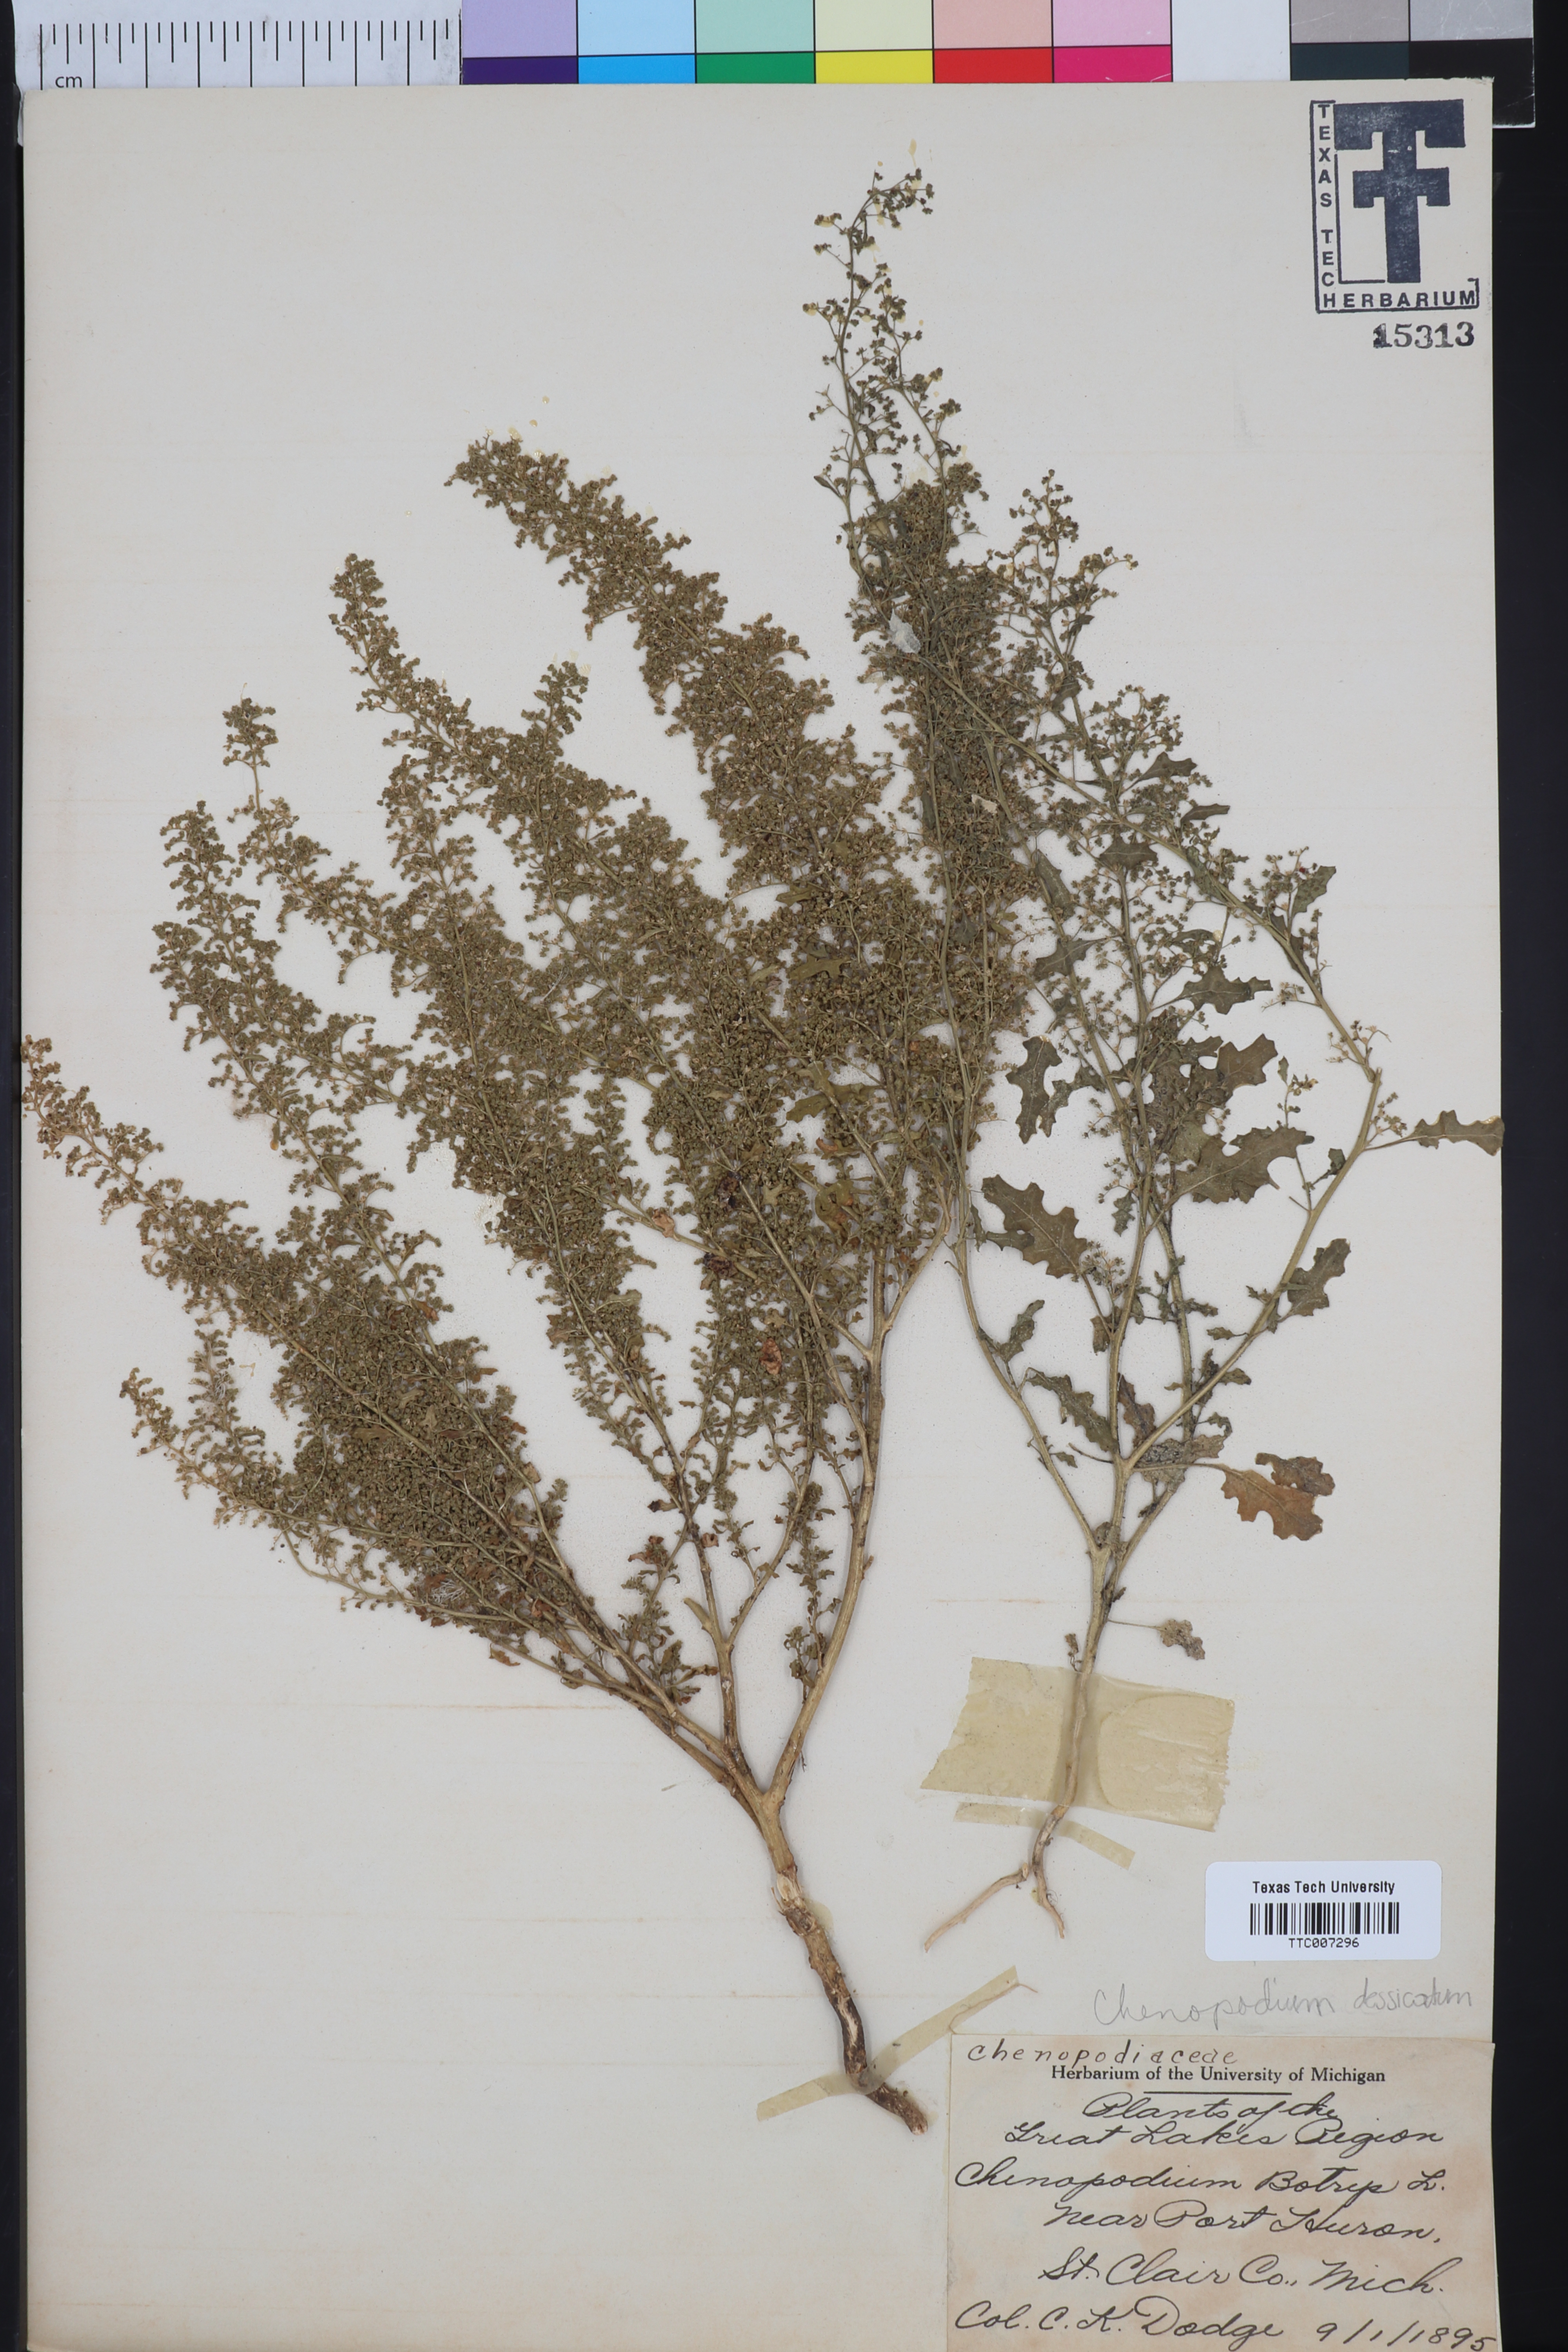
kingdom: Plantae
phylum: Tracheophyta
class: Magnoliopsida
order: Caryophyllales
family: Amaranthaceae
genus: Dysphania
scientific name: Dysphania botrys
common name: Feather-geranium
